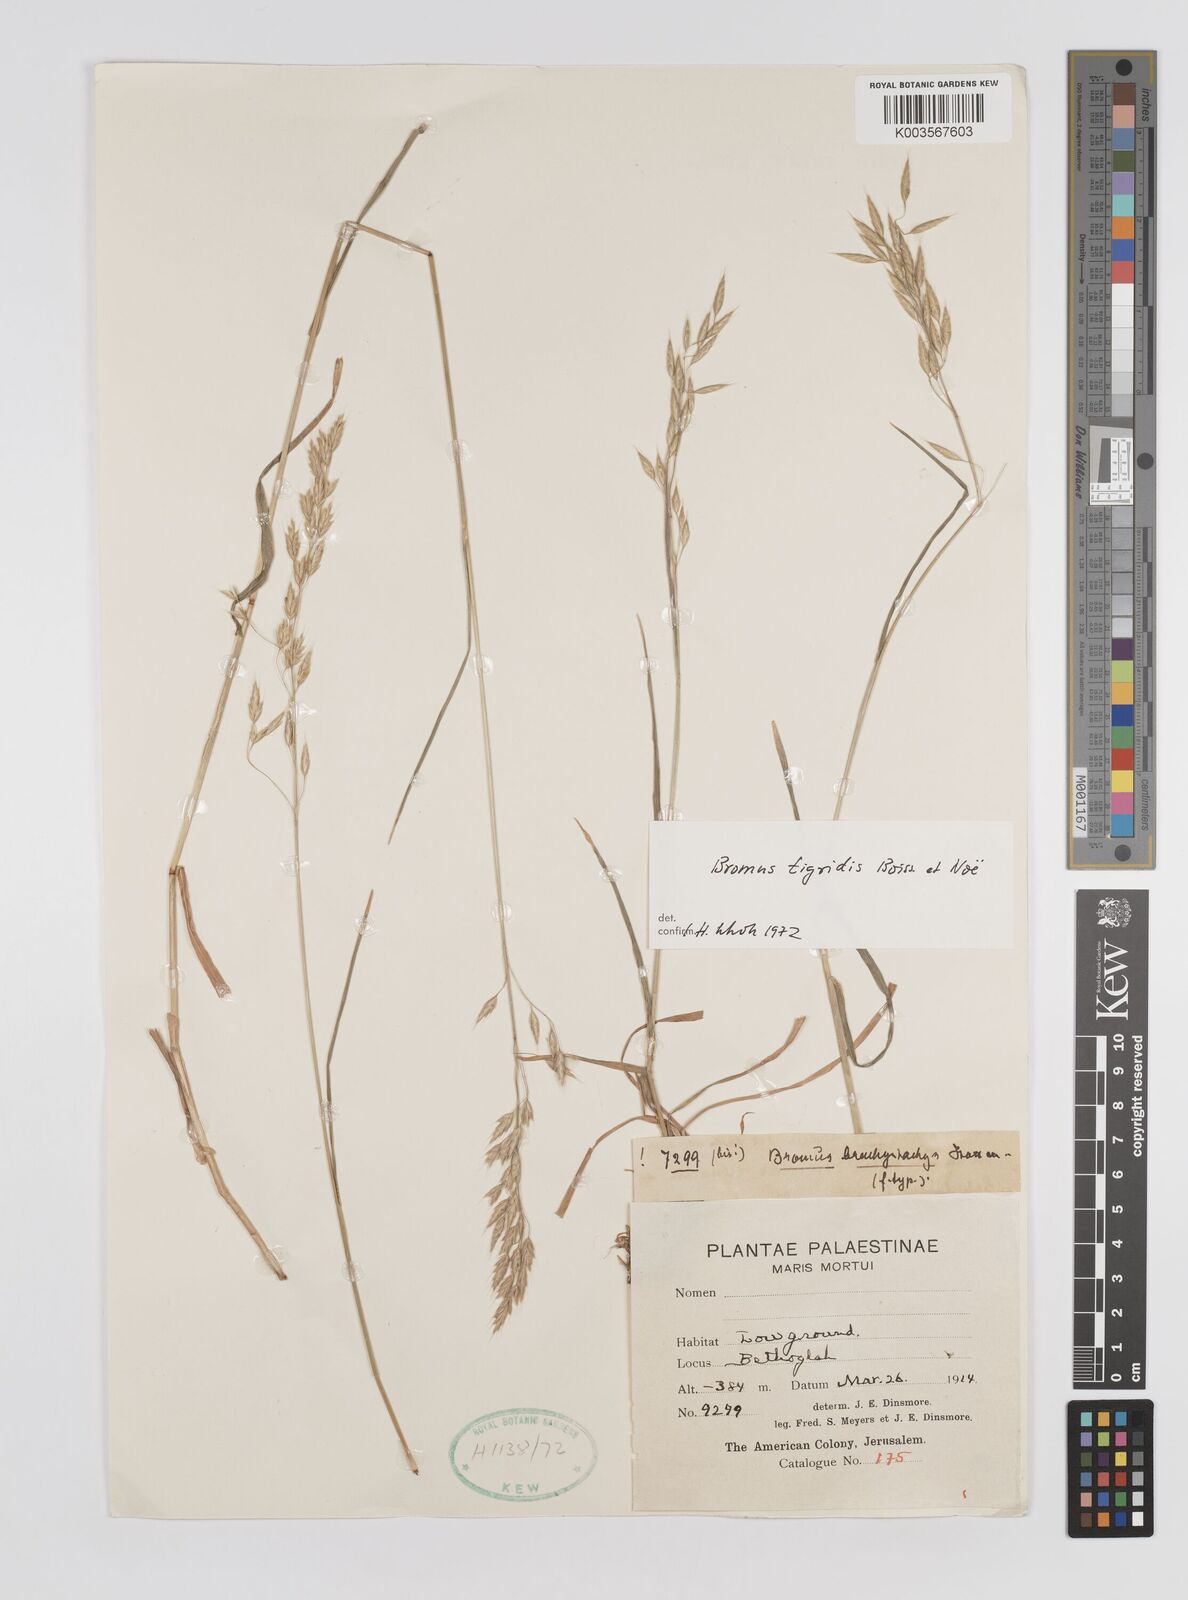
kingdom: Plantae
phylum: Tracheophyta
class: Liliopsida
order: Poales
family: Poaceae
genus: Bromus
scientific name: Bromus brachystachys
